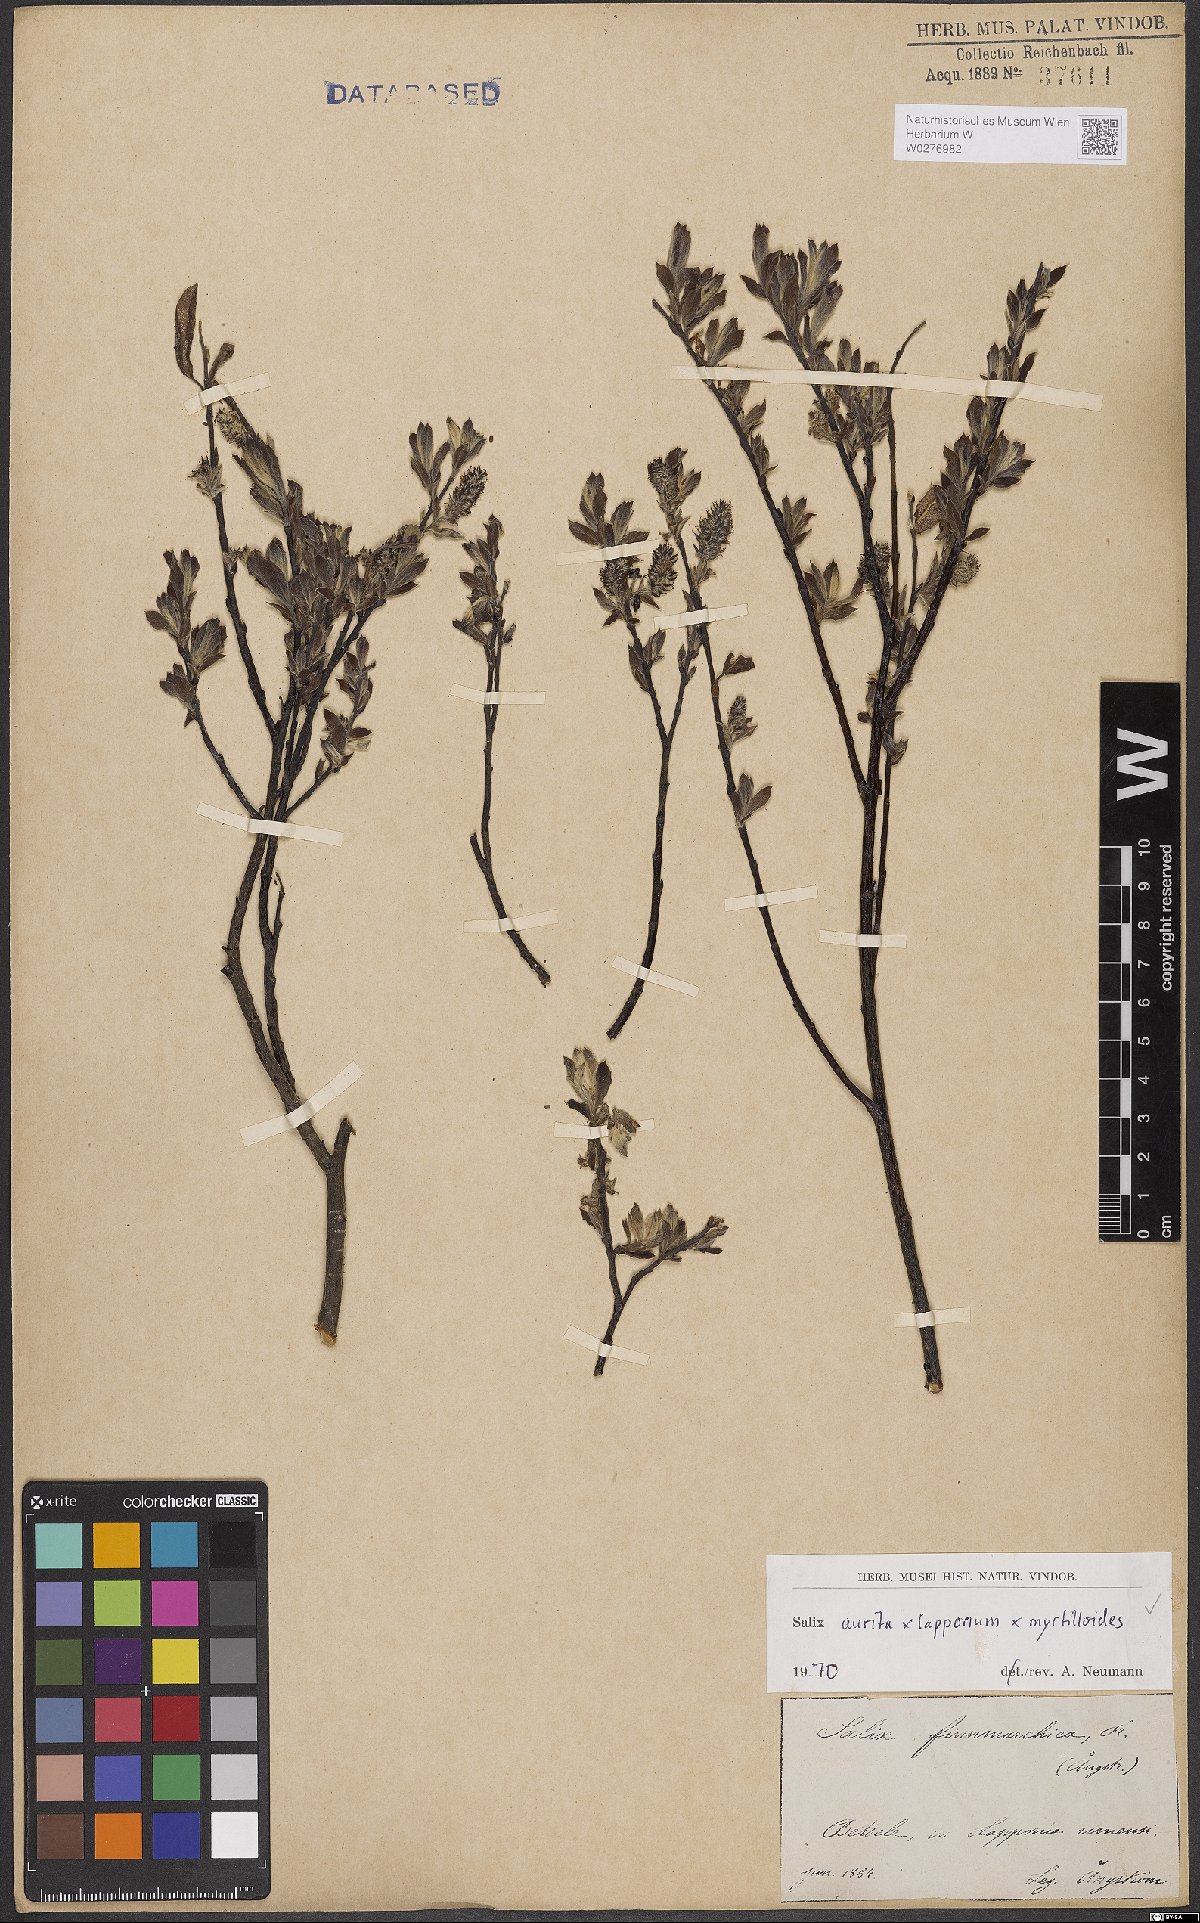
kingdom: Plantae
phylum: Tracheophyta
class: Magnoliopsida
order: Malpighiales
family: Salicaceae
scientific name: Salicaceae
